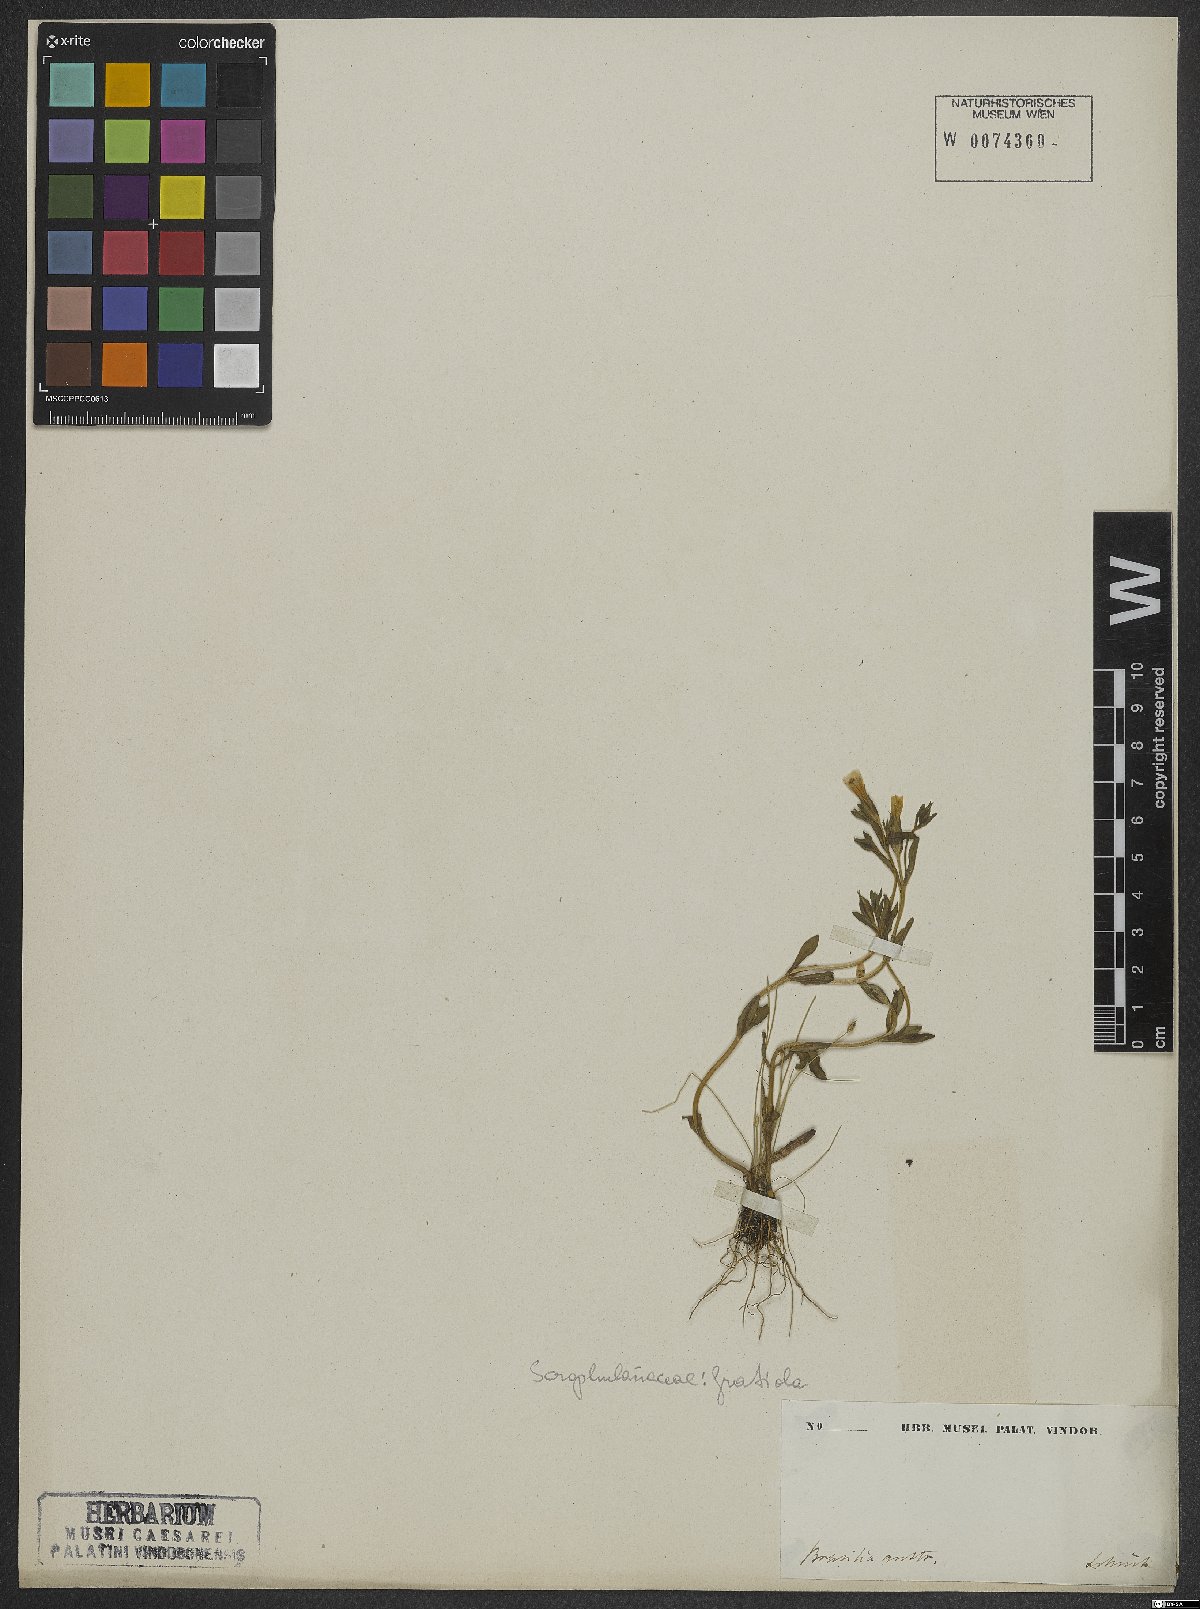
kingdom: Plantae
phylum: Tracheophyta
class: Magnoliopsida
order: Lamiales
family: Plantaginaceae
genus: Gratiola
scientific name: Gratiola
